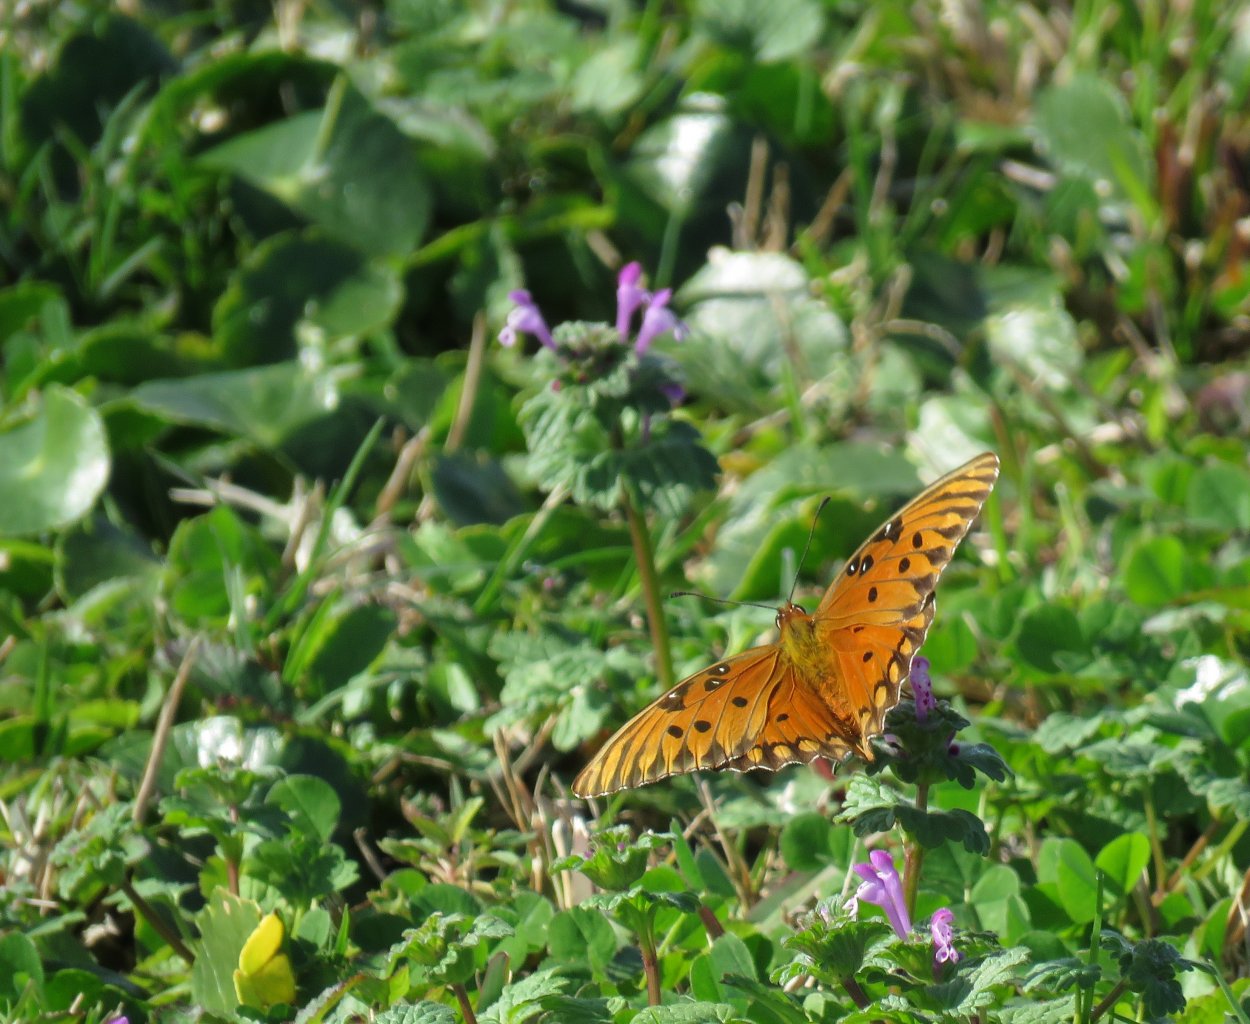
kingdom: Animalia
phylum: Arthropoda
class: Insecta
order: Lepidoptera
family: Nymphalidae
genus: Dione
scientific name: Dione vanillae
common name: Gulf Fritillary
